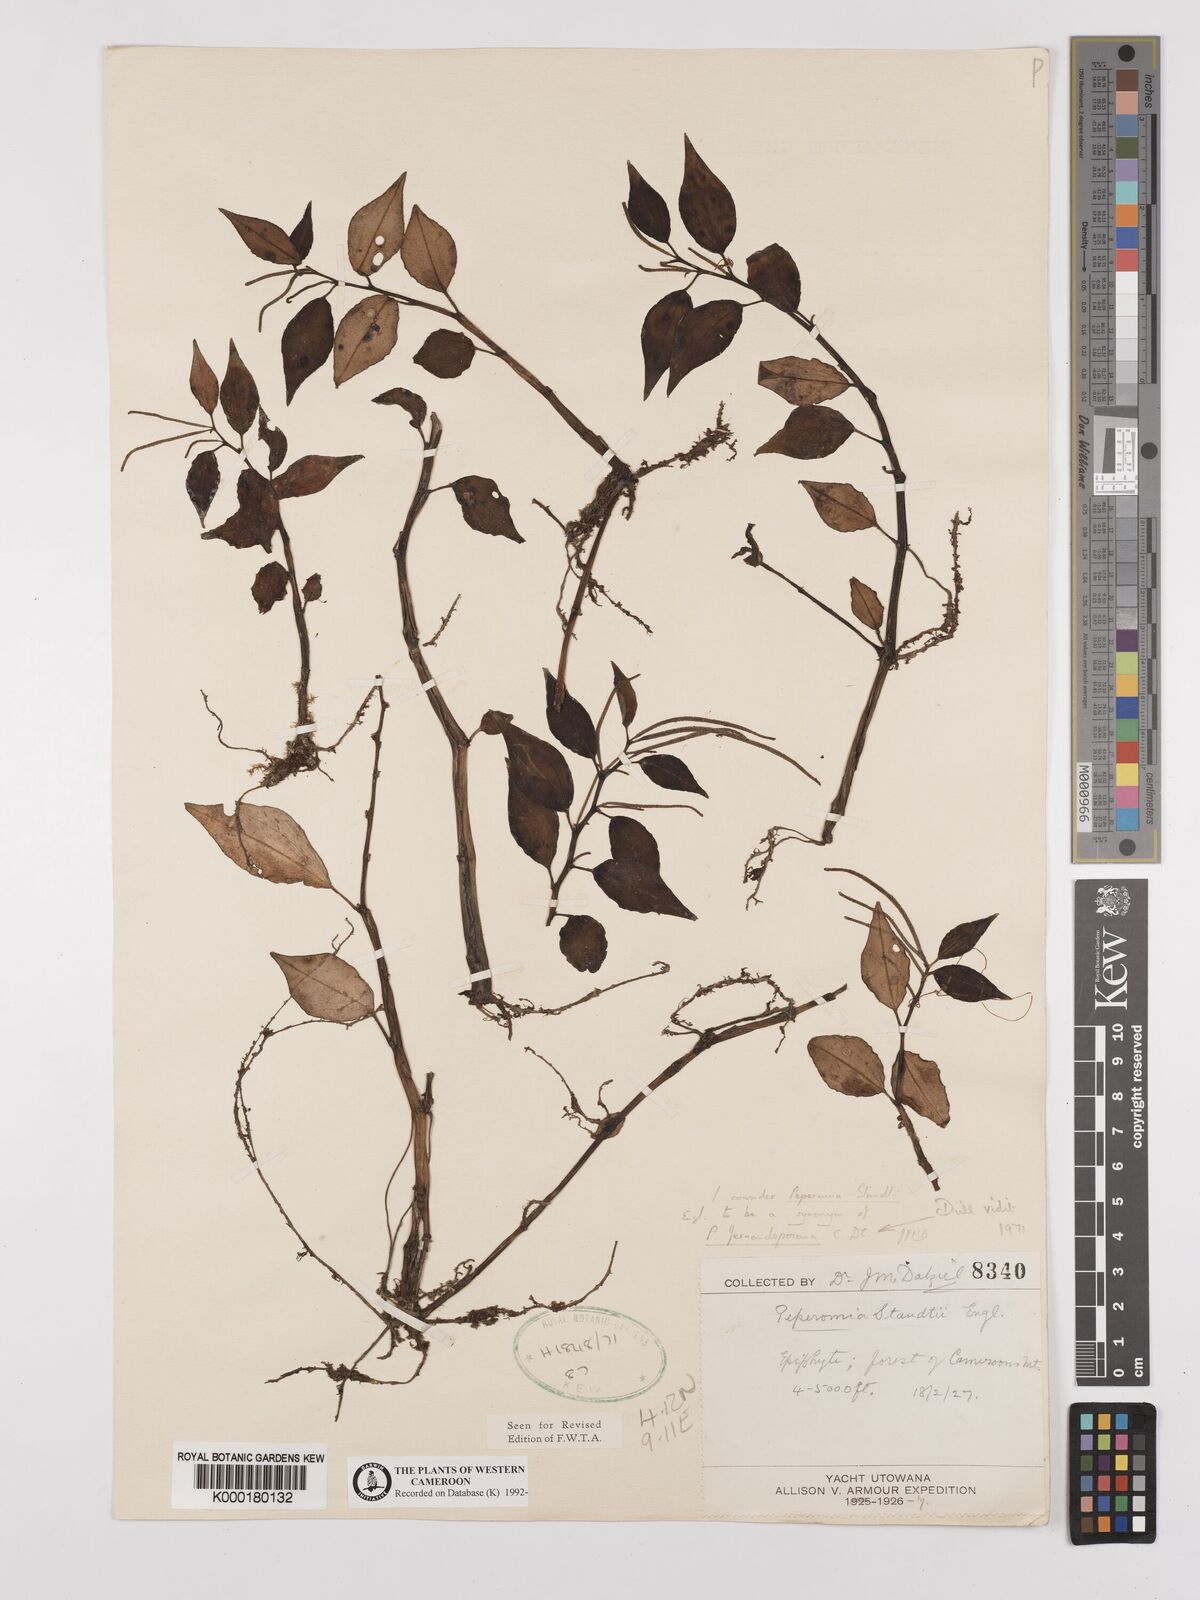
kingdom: Plantae
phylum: Tracheophyta
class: Magnoliopsida
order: Piperales
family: Piperaceae
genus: Peperomia
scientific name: Peperomia fernandopoiana
